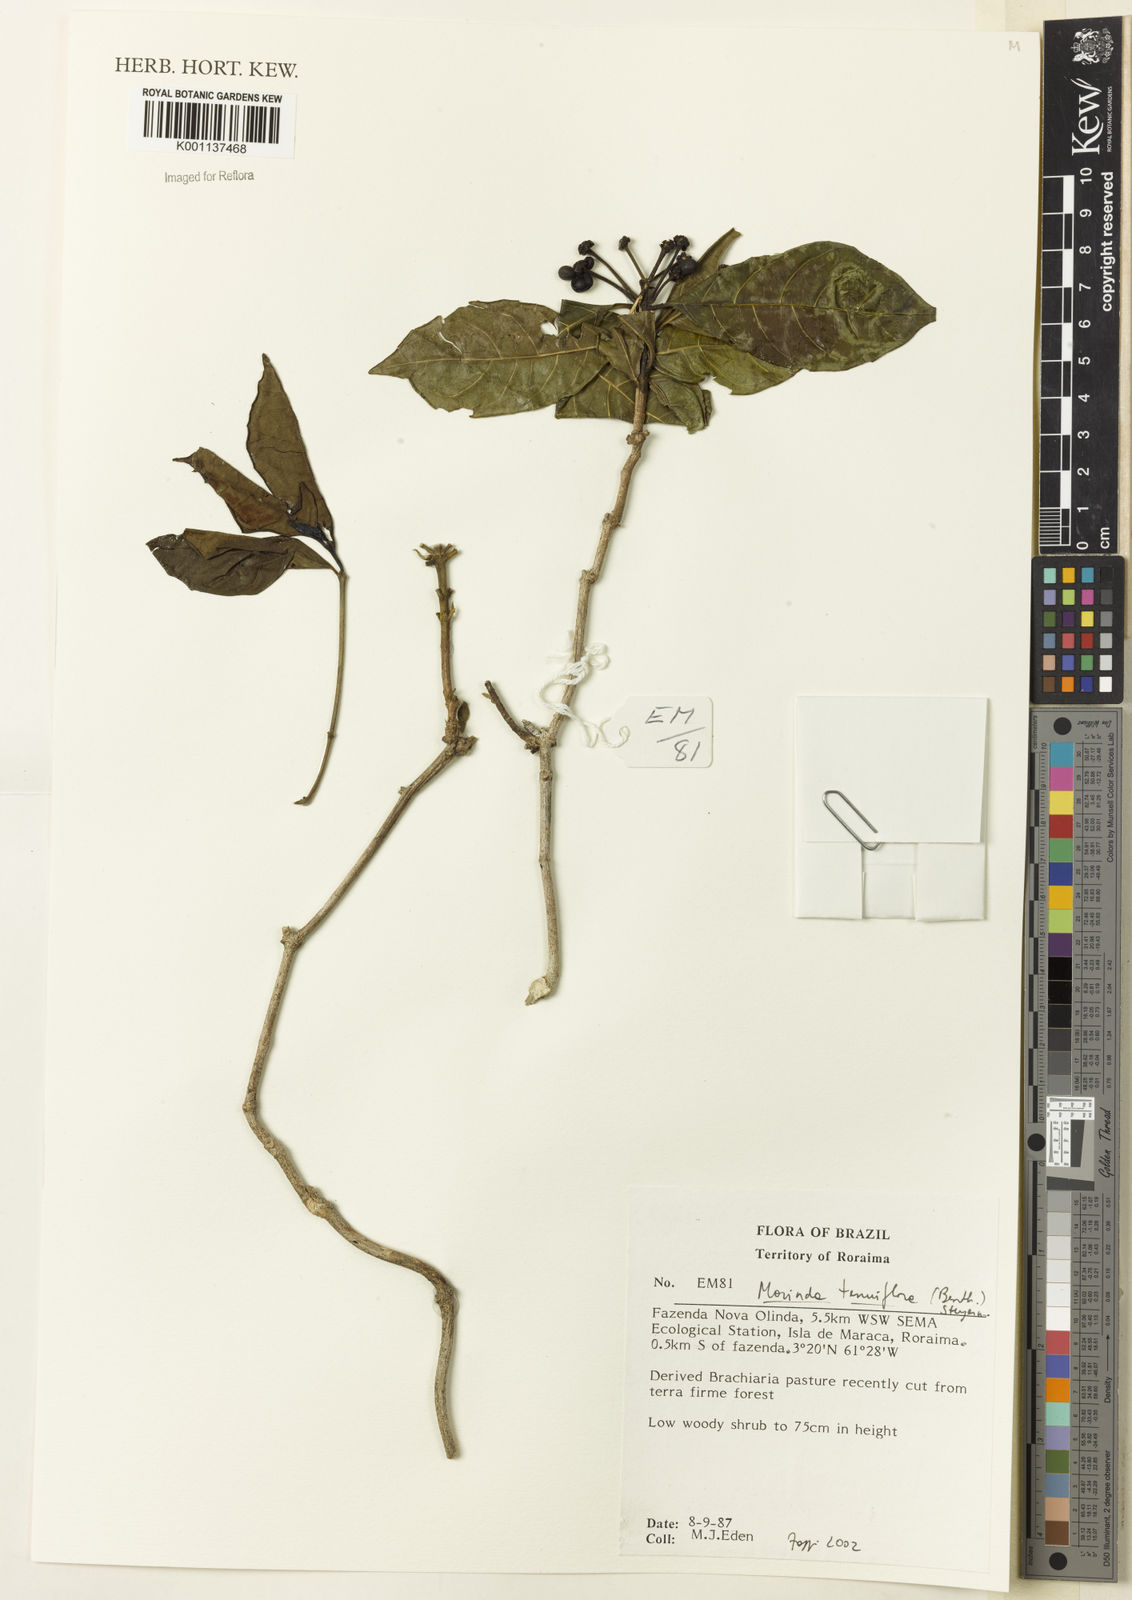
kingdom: Plantae
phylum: Tracheophyta
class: Magnoliopsida
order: Gentianales
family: Rubiaceae
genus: Appunia
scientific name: Appunia tenuiflora
